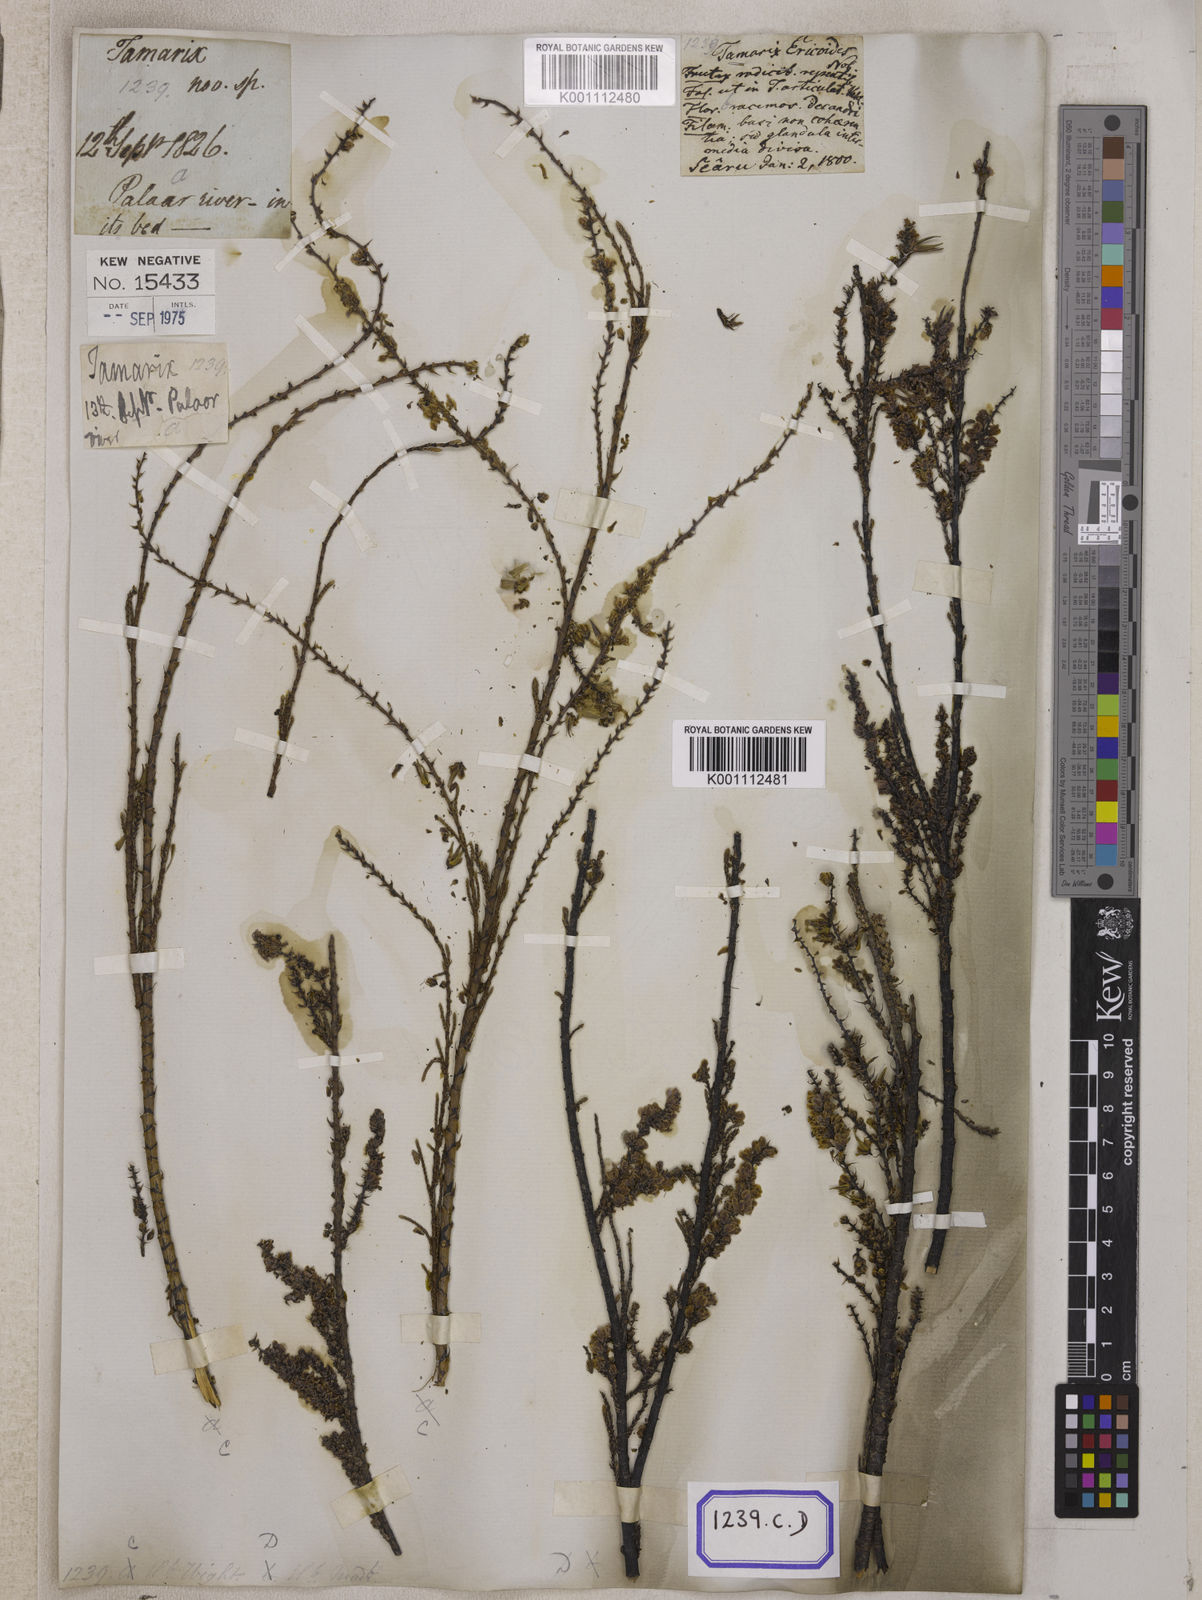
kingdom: Plantae
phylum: Tracheophyta
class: Magnoliopsida
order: Caryophyllales
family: Tamaricaceae
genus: Tamarix
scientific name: Tamarix ericoides
